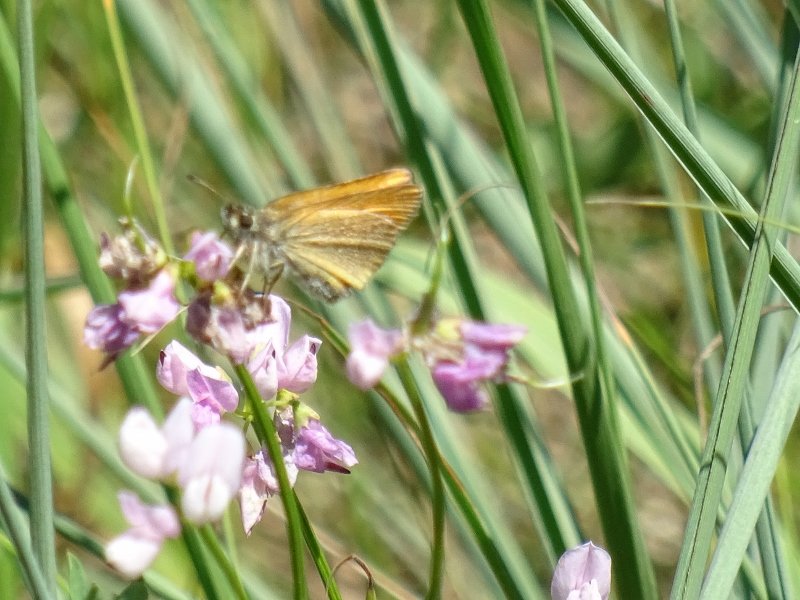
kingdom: Animalia
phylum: Arthropoda
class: Insecta
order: Lepidoptera
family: Hesperiidae
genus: Thymelicus
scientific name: Thymelicus lineola
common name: European Skipper
